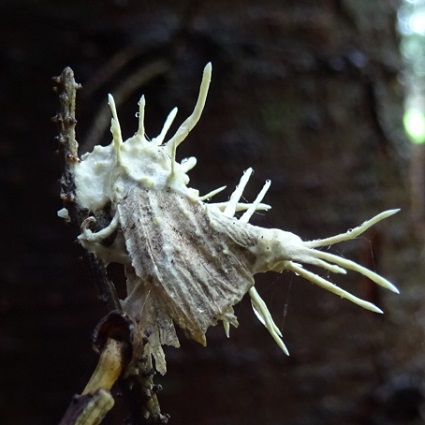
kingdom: Fungi
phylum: Ascomycota
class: Sordariomycetes
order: Hypocreales
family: Cordycipitaceae
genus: Akanthomyces
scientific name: Akanthomyces tuberculatus
